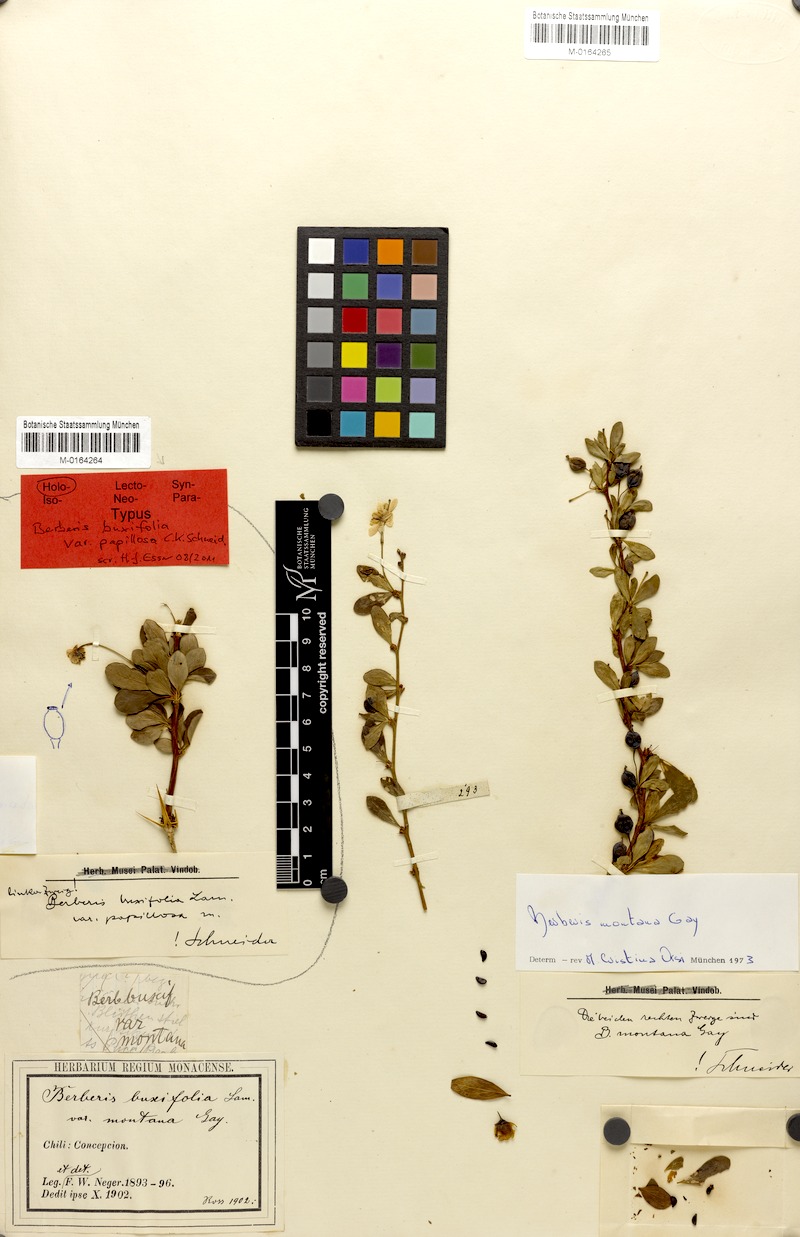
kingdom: Plantae
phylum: Tracheophyta
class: Magnoliopsida
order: Ranunculales
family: Berberidaceae
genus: Berberis
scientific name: Berberis microphylla
